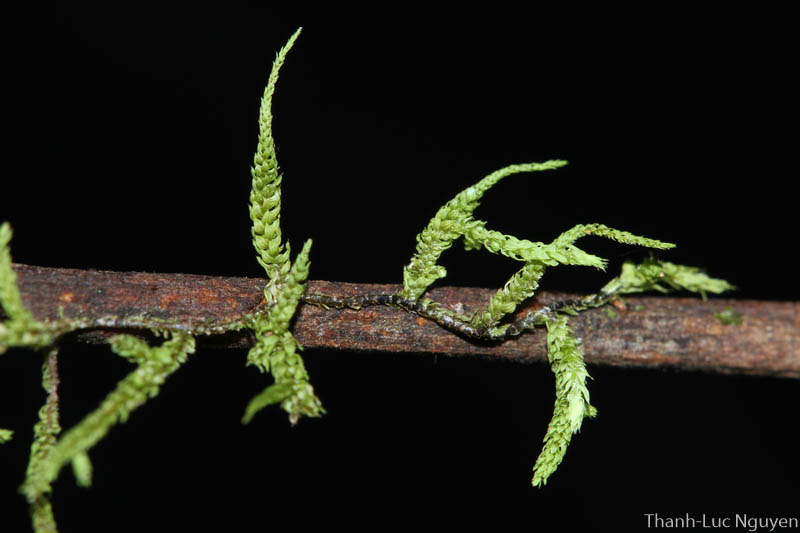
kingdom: Plantae
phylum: Bryophyta
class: Bryopsida
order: Hypnales
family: Meteoriaceae
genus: Cryptopapillaria
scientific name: Cryptopapillaria
